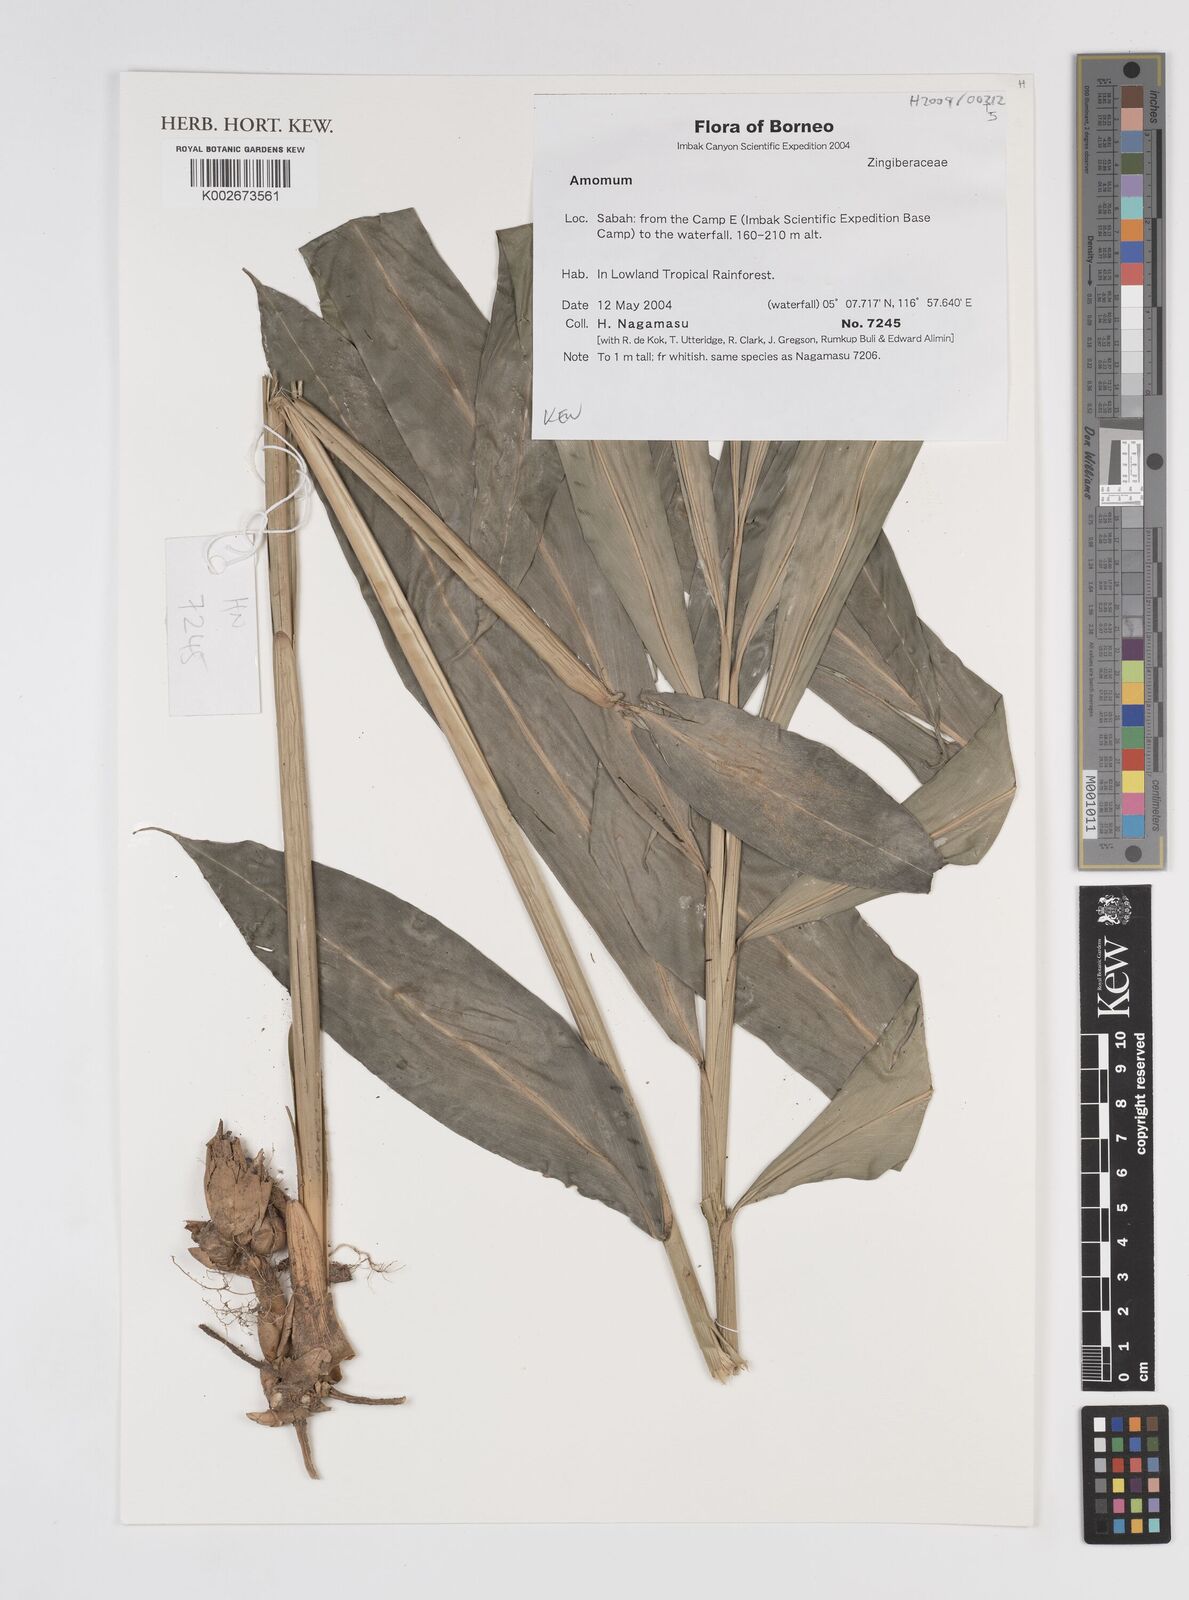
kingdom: Plantae
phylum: Tracheophyta
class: Liliopsida
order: Zingiberales
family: Zingiberaceae
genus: Amomum
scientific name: Amomum
